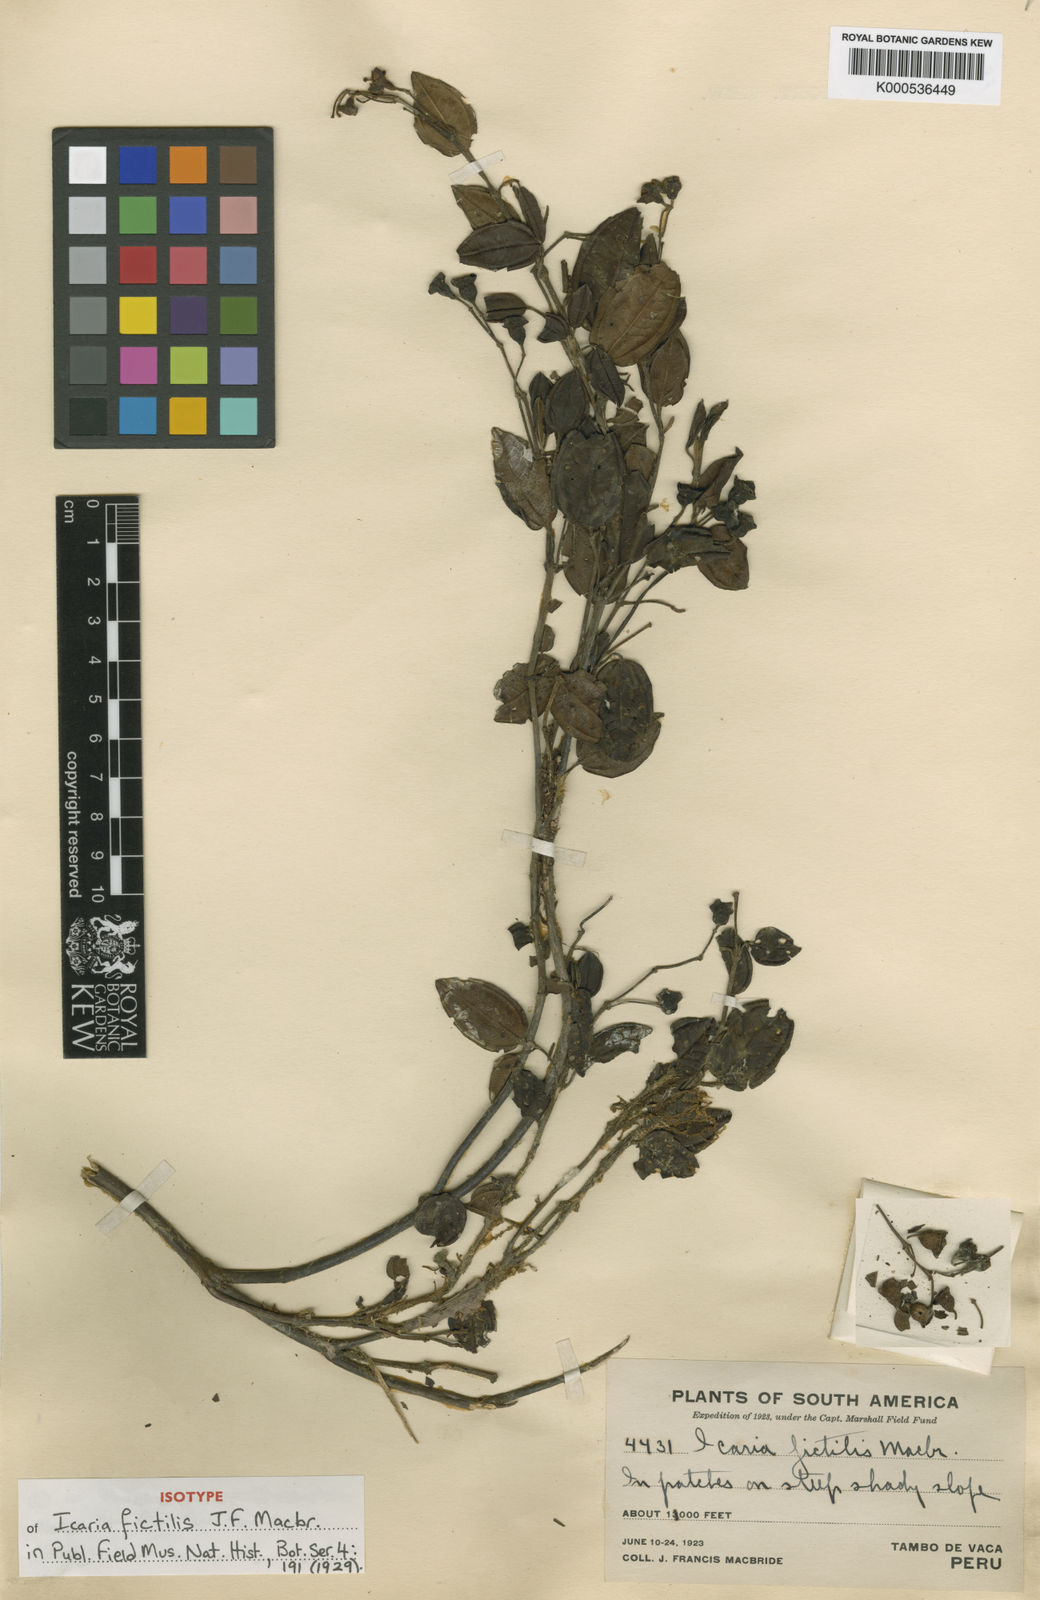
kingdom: Plantae
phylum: Tracheophyta
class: Magnoliopsida
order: Myrtales
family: Melastomataceae
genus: Miconia
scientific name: Miconia fictilis
